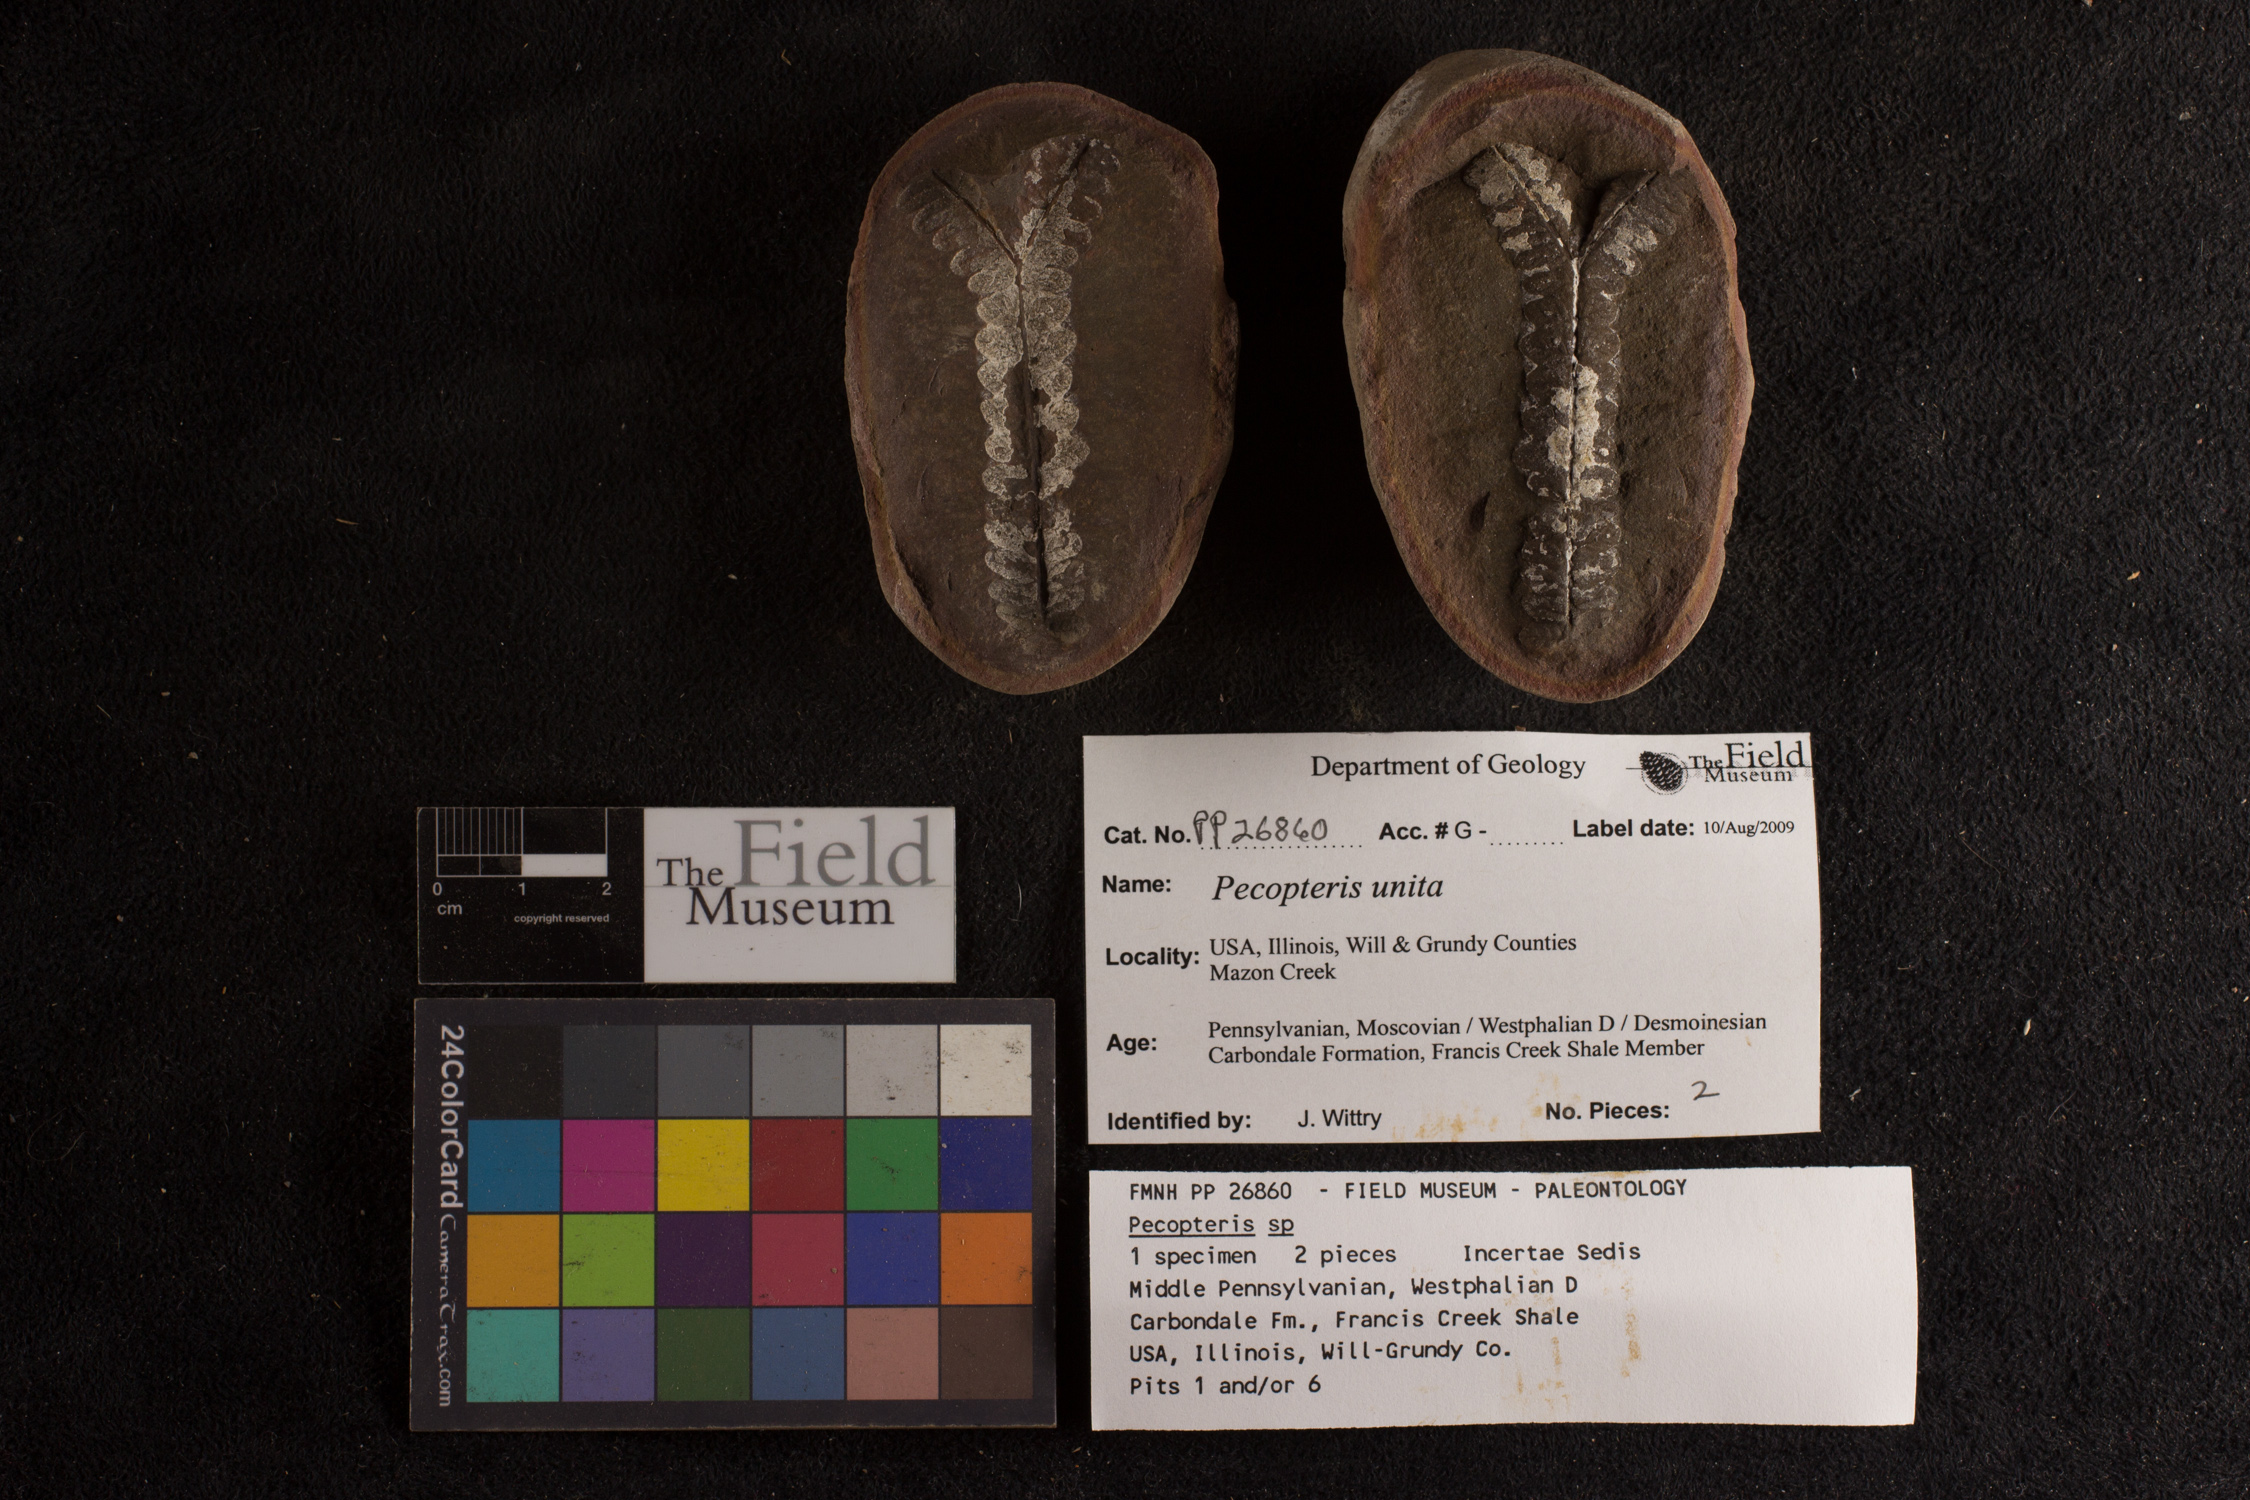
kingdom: Plantae
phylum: Tracheophyta
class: Polypodiopsida
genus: Diplazites
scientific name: Diplazites
